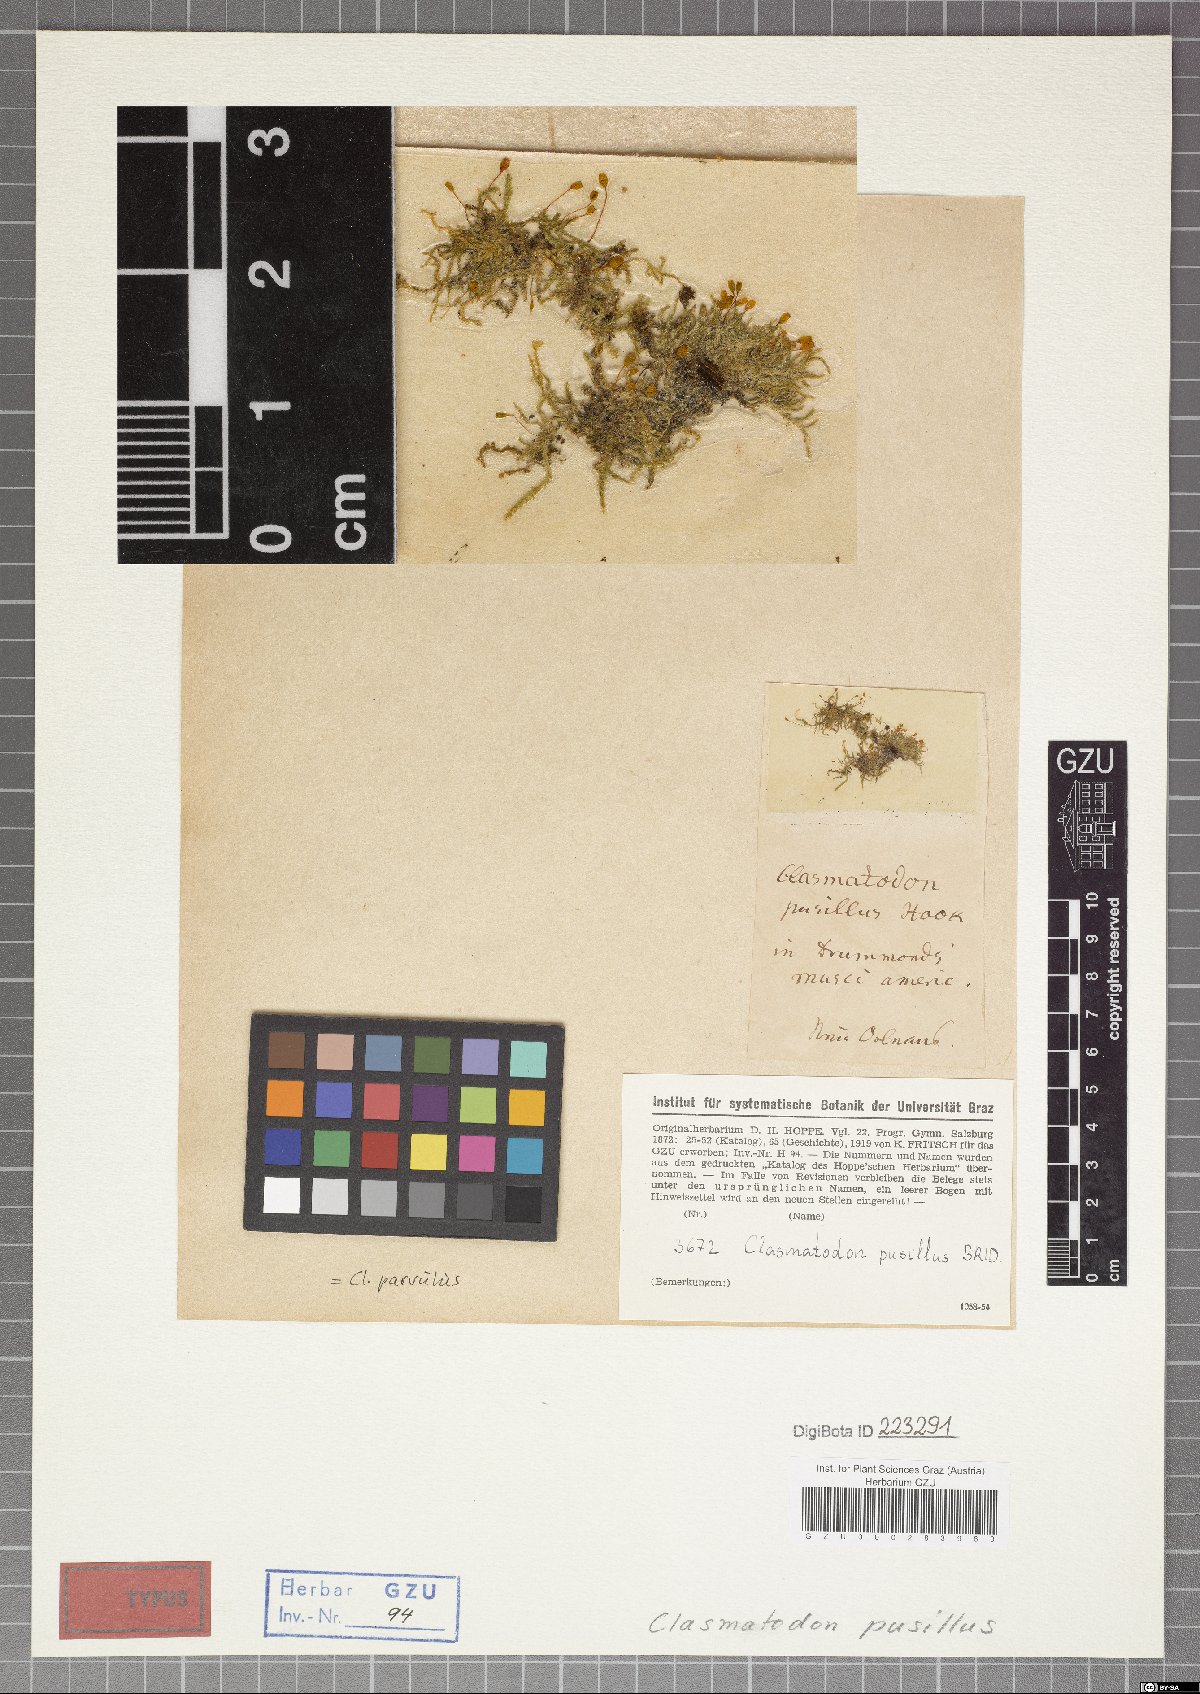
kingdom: Plantae
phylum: Bryophyta
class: Bryopsida
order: Hypnales
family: Brachytheciaceae
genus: Clasmatodon
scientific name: Clasmatodon parvulus
